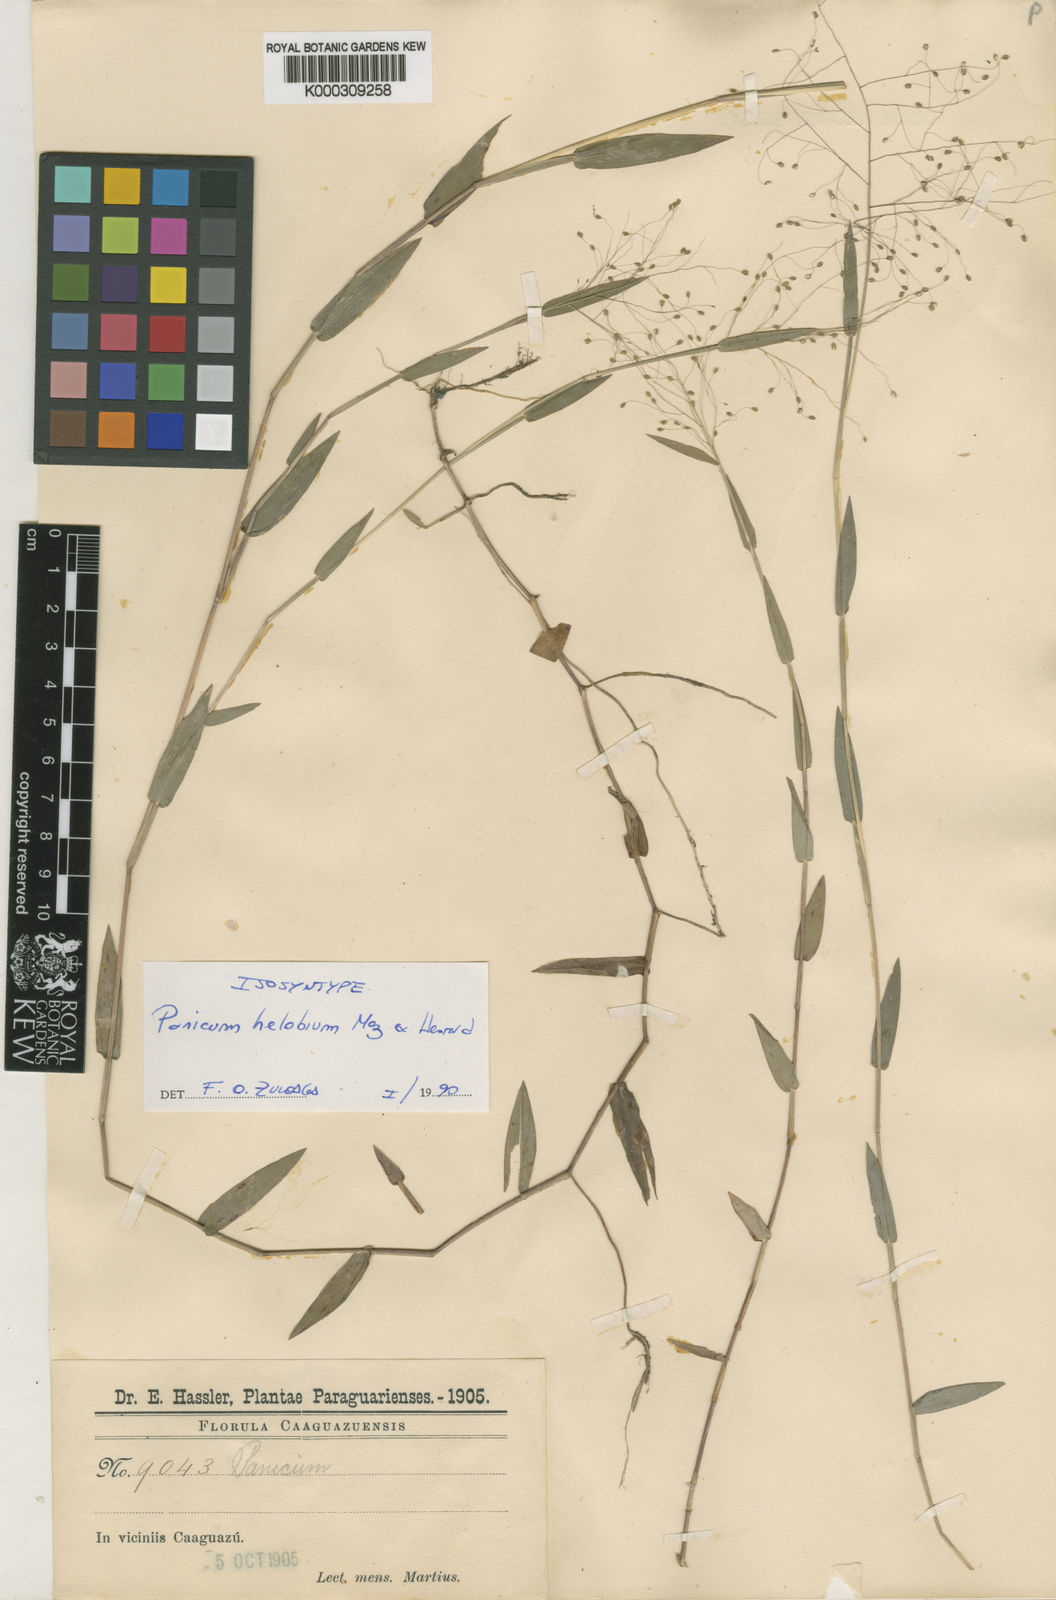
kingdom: Plantae
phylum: Tracheophyta
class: Liliopsida
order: Poales
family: Poaceae
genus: Trichanthecium
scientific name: Trichanthecium schwackeanum
